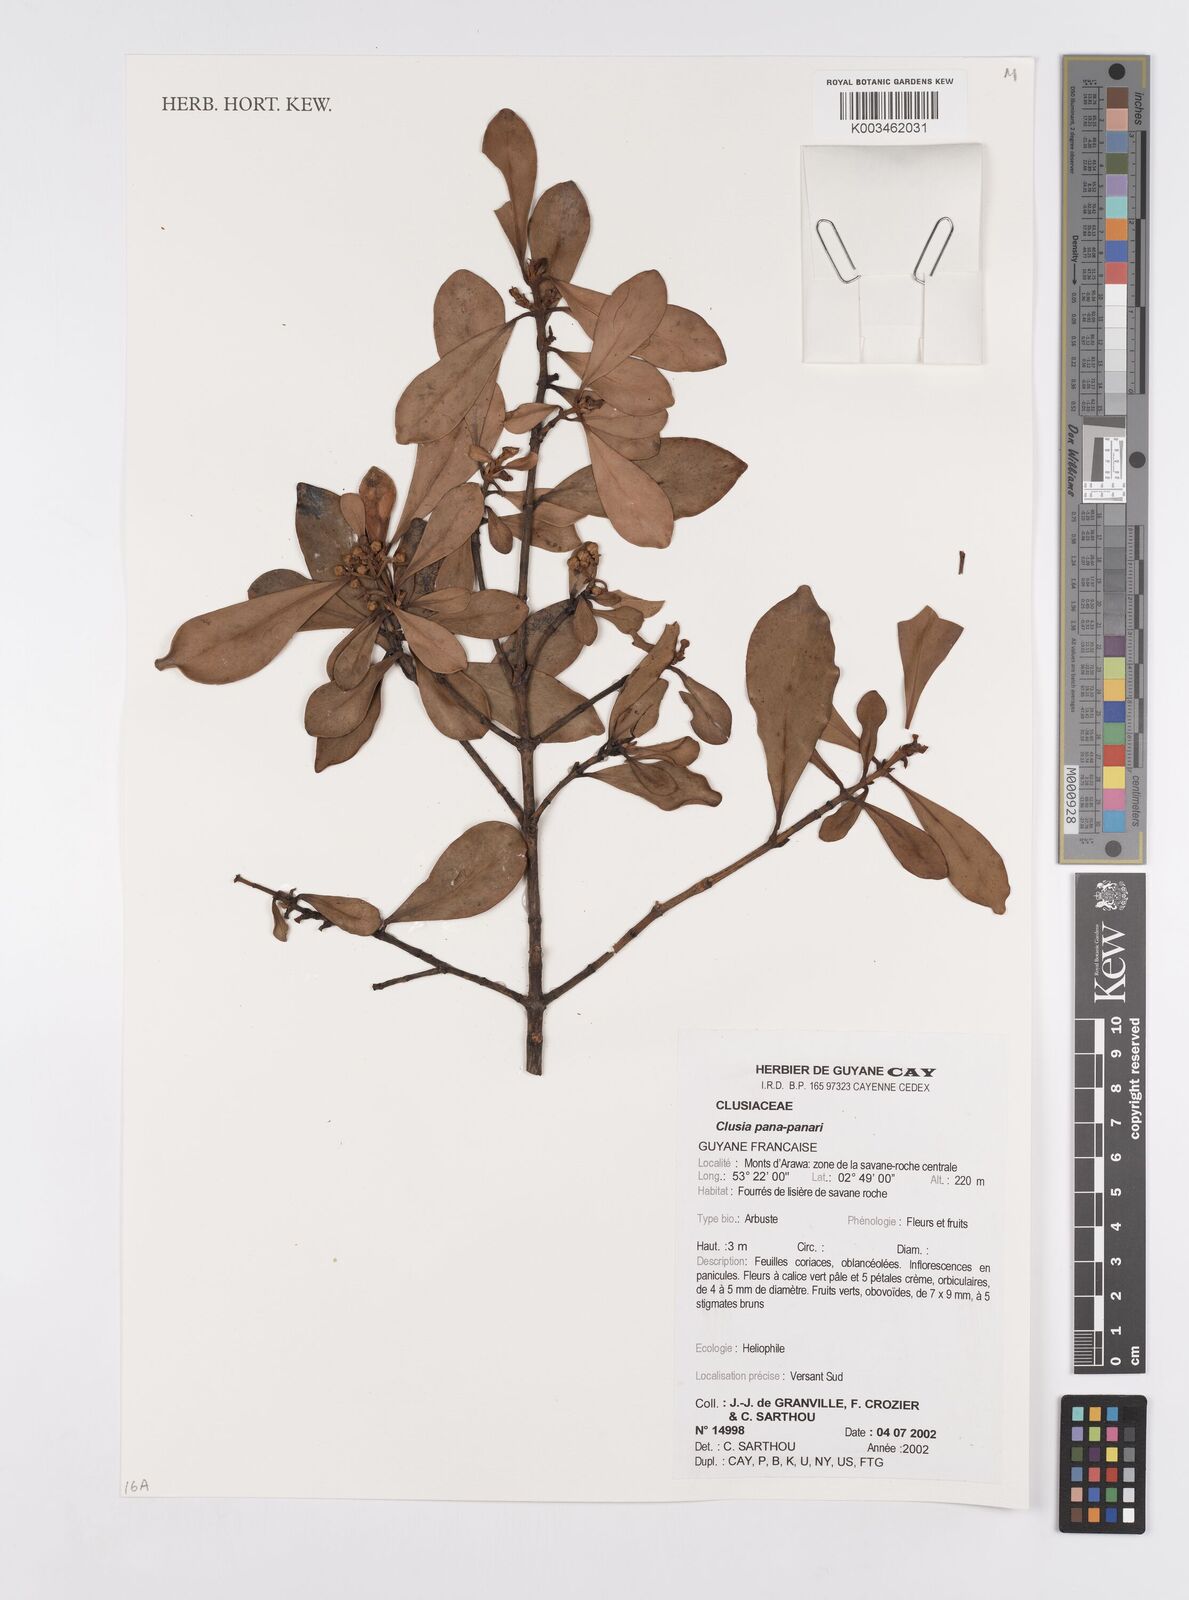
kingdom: Plantae
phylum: Tracheophyta
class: Magnoliopsida
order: Malpighiales
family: Clusiaceae
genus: Clusia
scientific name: Clusia panapanari
